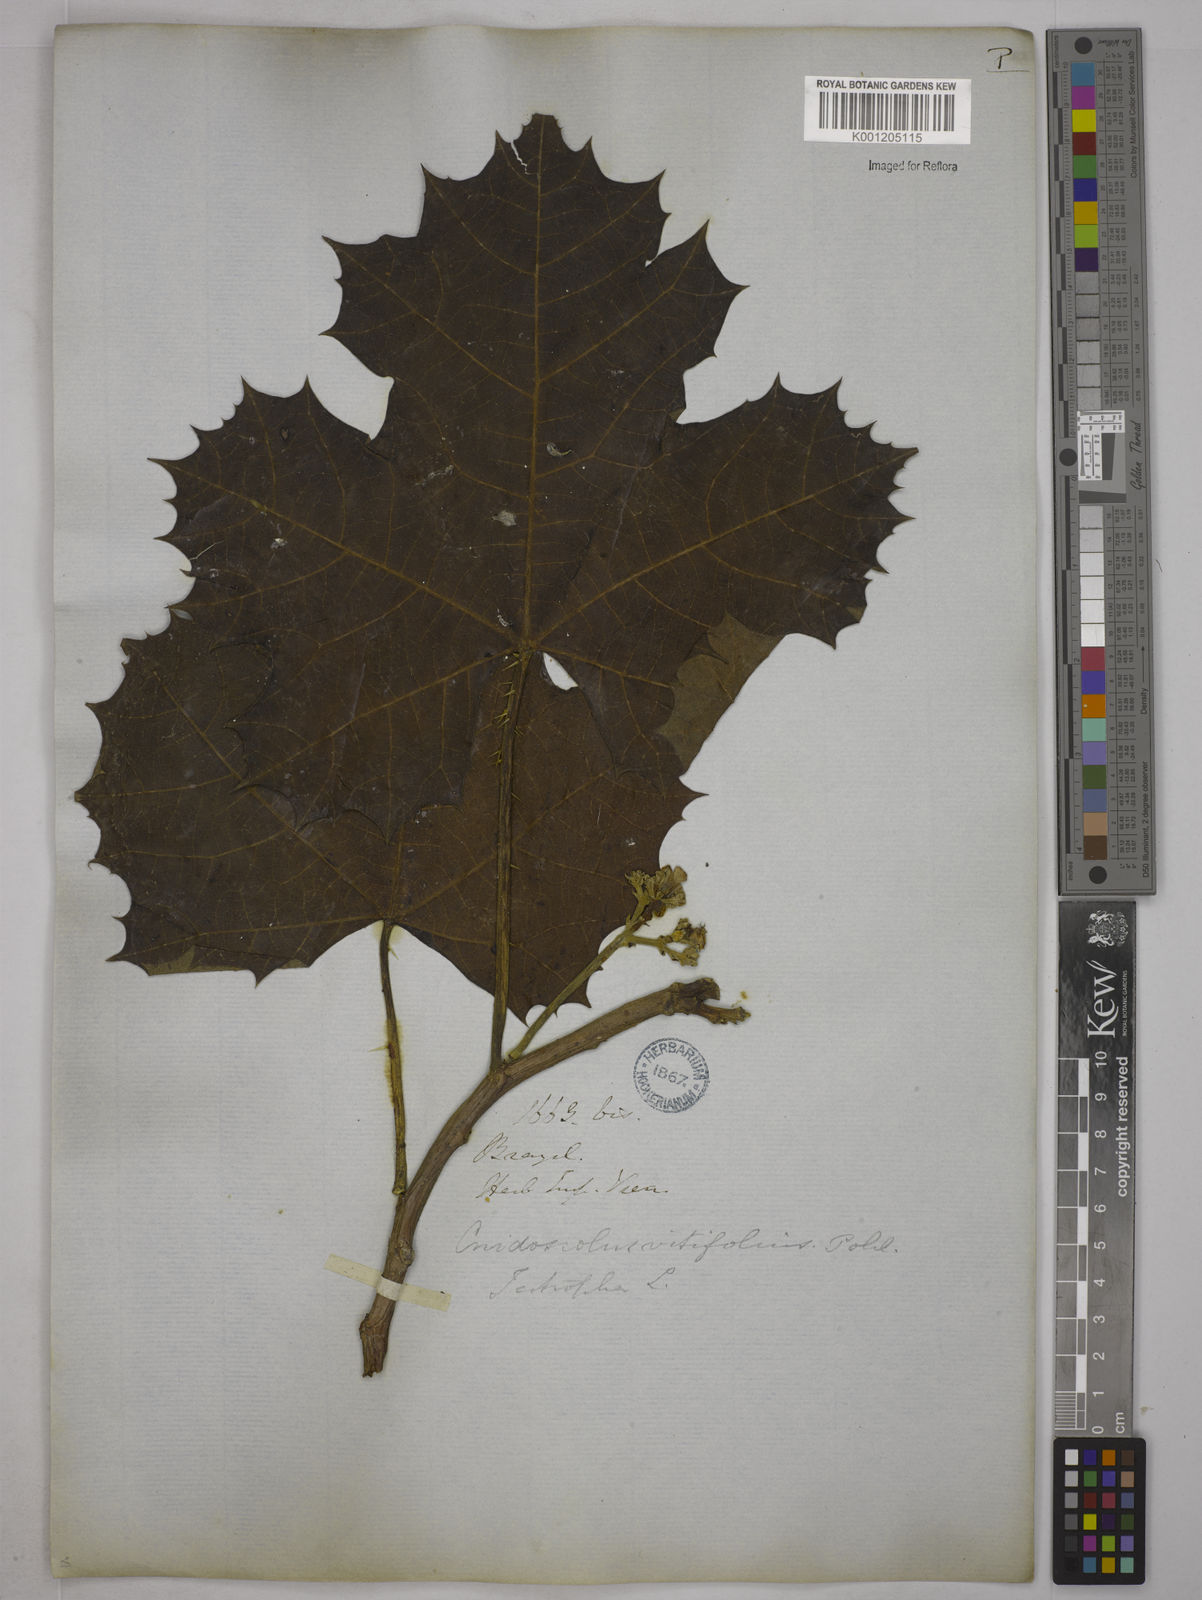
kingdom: Plantae
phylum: Tracheophyta
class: Magnoliopsida
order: Malpighiales
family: Euphorbiaceae
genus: Cnidoscolus
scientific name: Cnidoscolus vitifolius
